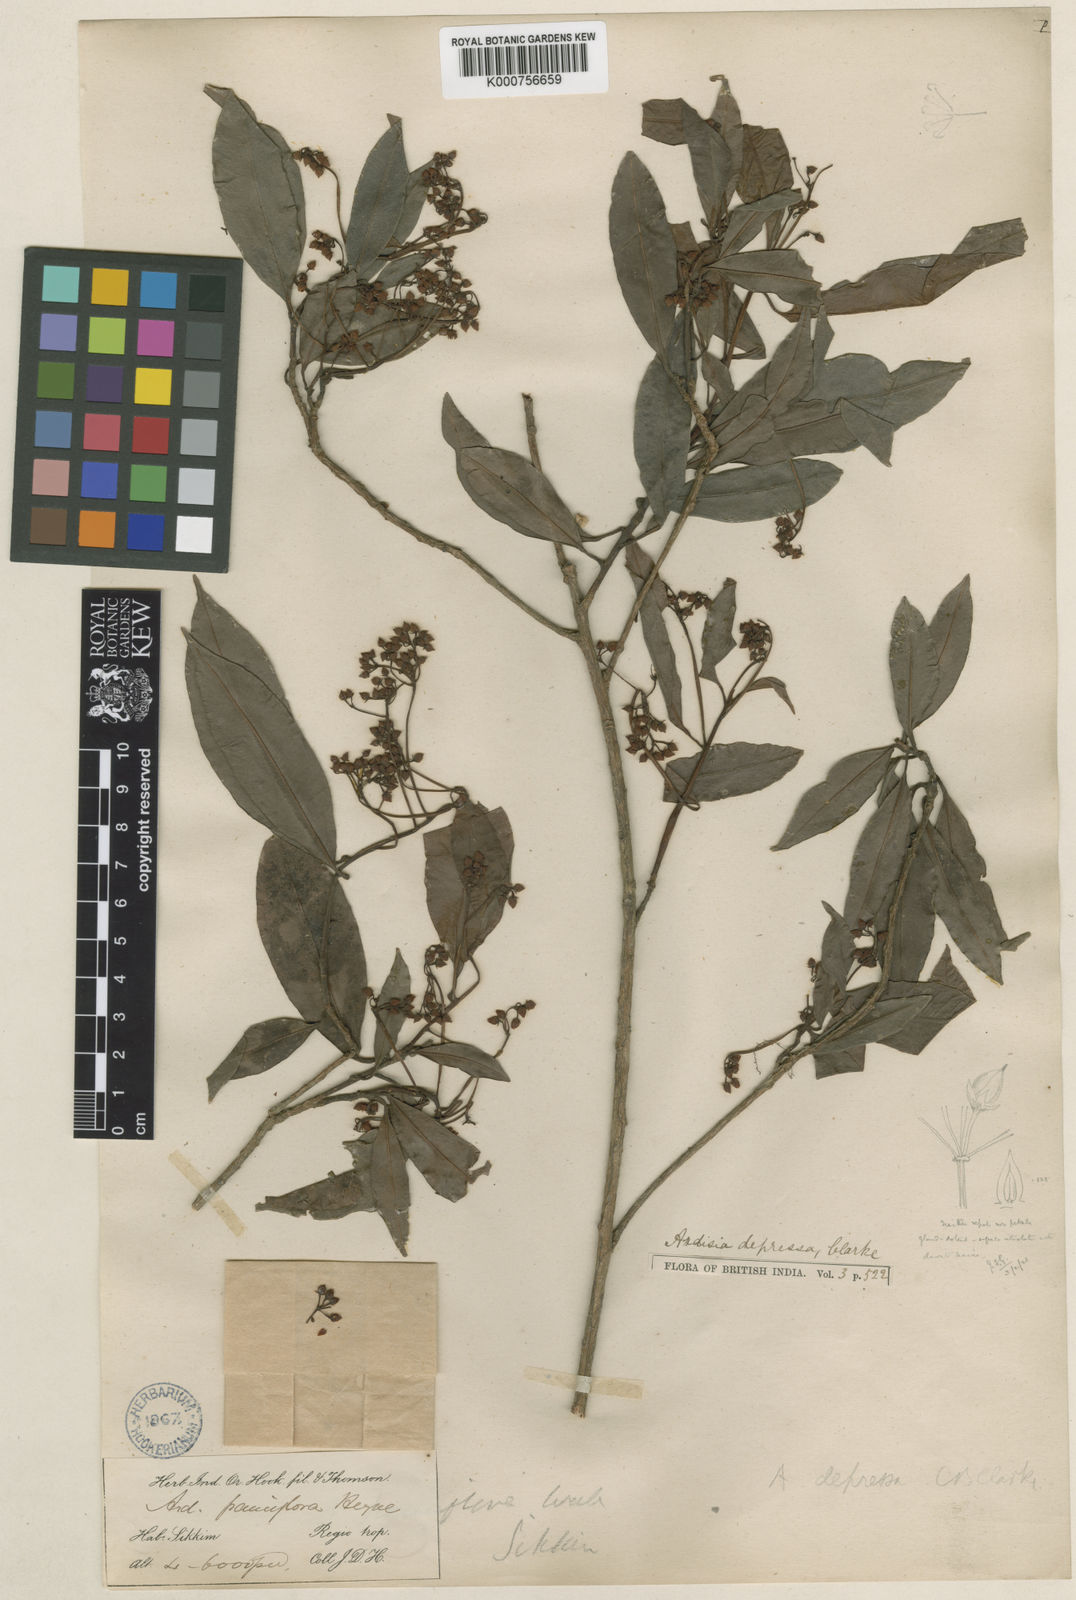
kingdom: Plantae
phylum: Tracheophyta
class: Magnoliopsida
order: Ericales
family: Primulaceae
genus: Ardisia
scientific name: Ardisia floribunda
